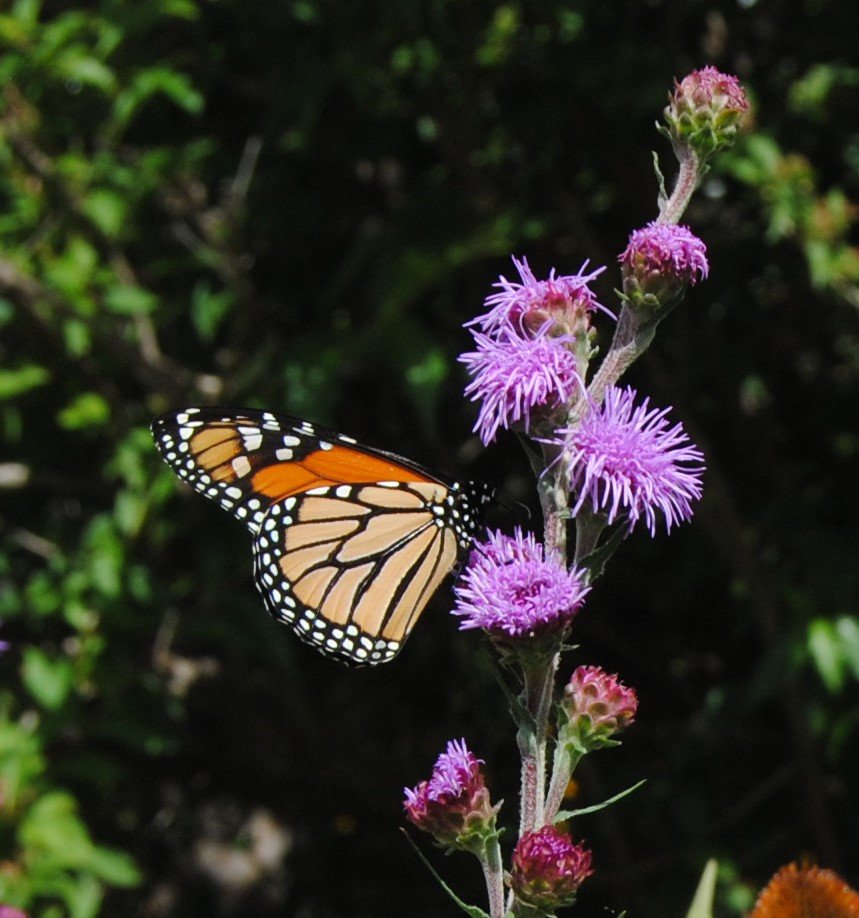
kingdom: Animalia
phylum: Arthropoda
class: Insecta
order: Lepidoptera
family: Nymphalidae
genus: Danaus
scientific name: Danaus plexippus
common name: Monarch
